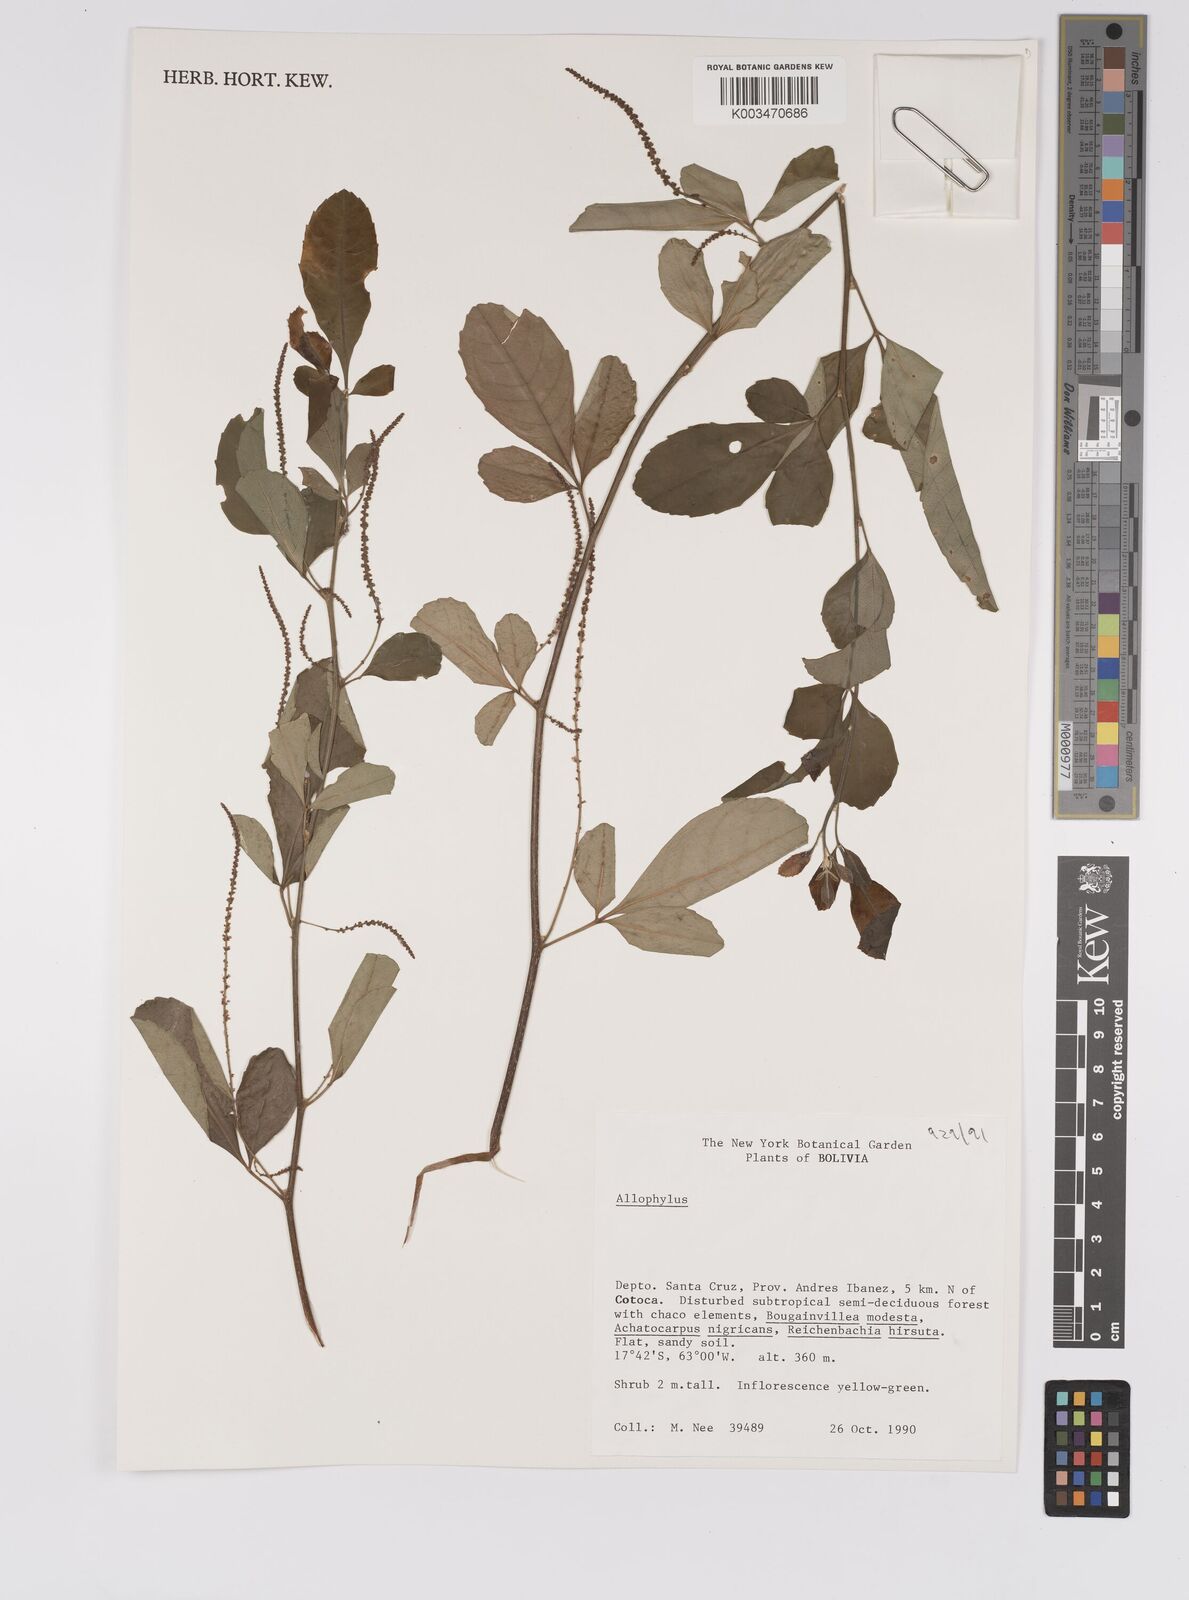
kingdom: Plantae
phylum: Tracheophyta
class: Magnoliopsida
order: Sapindales
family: Sapindaceae
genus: Allophylus
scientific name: Allophylus
